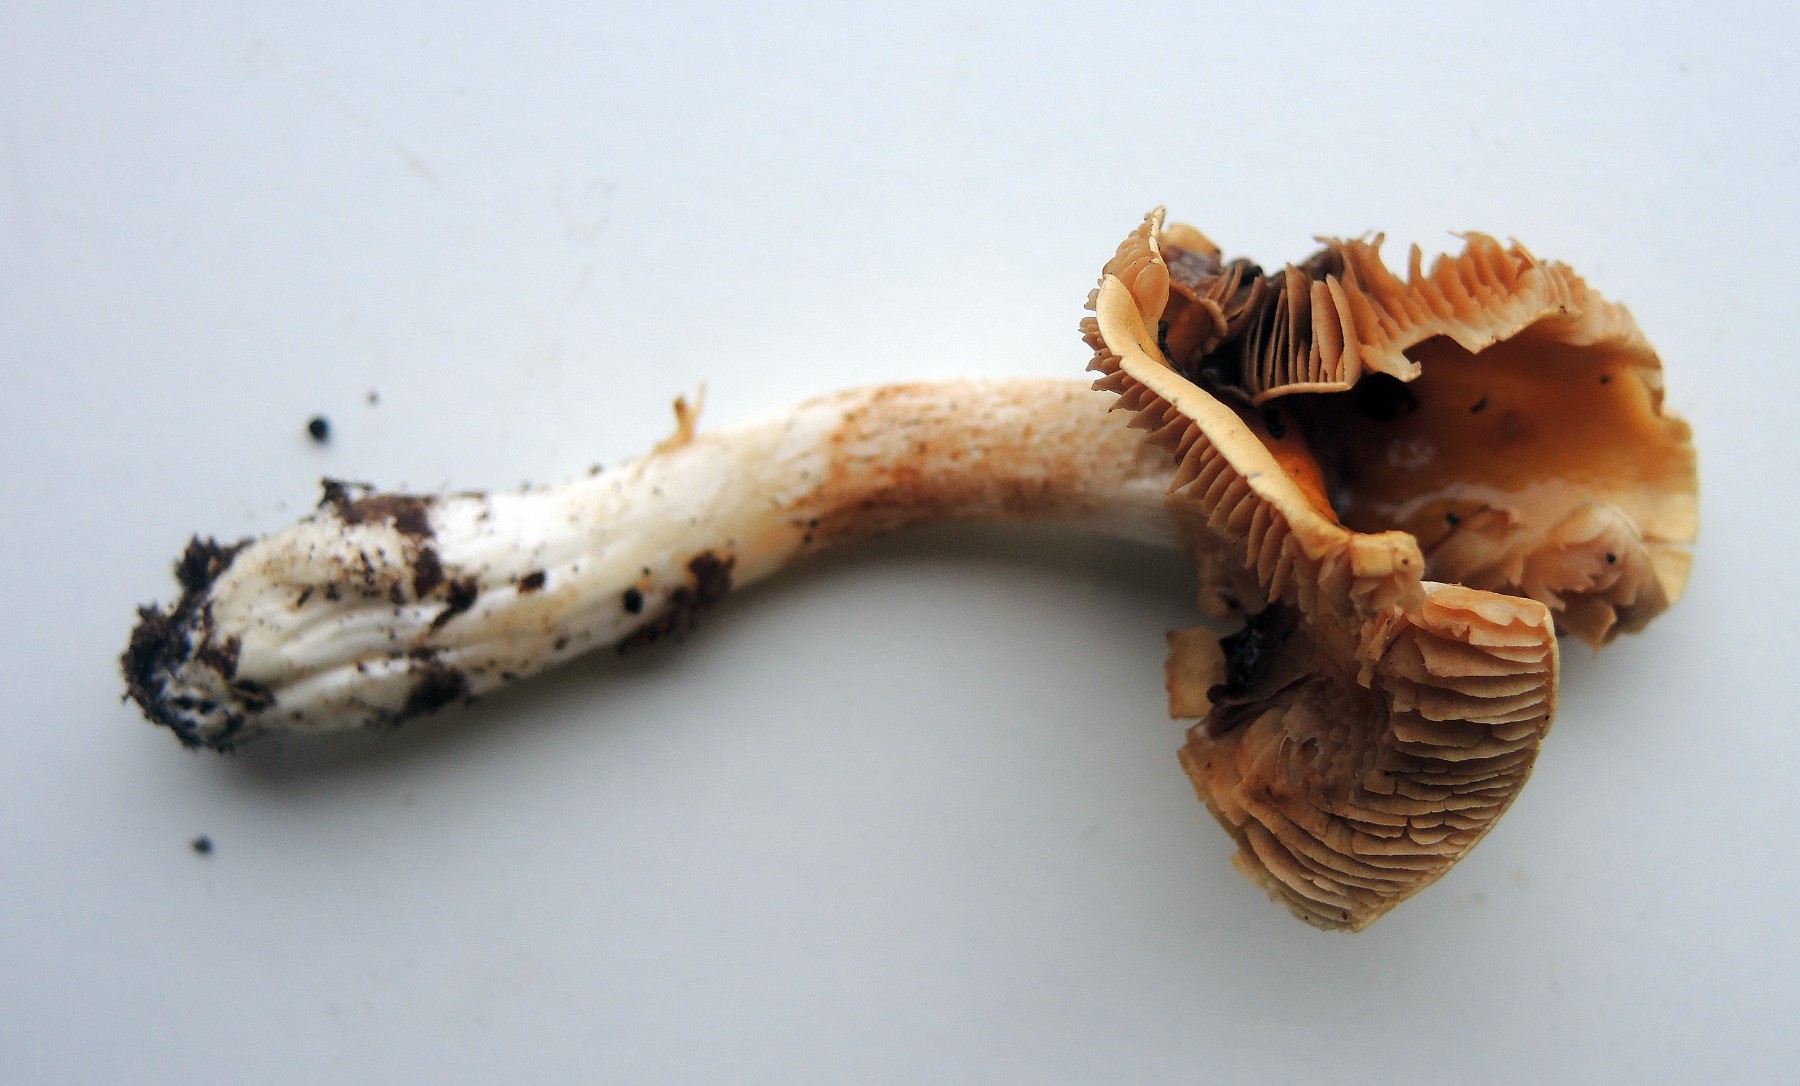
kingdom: Fungi
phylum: Basidiomycota
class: Agaricomycetes
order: Agaricales
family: Cortinariaceae
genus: Cortinarius
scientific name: Cortinarius
